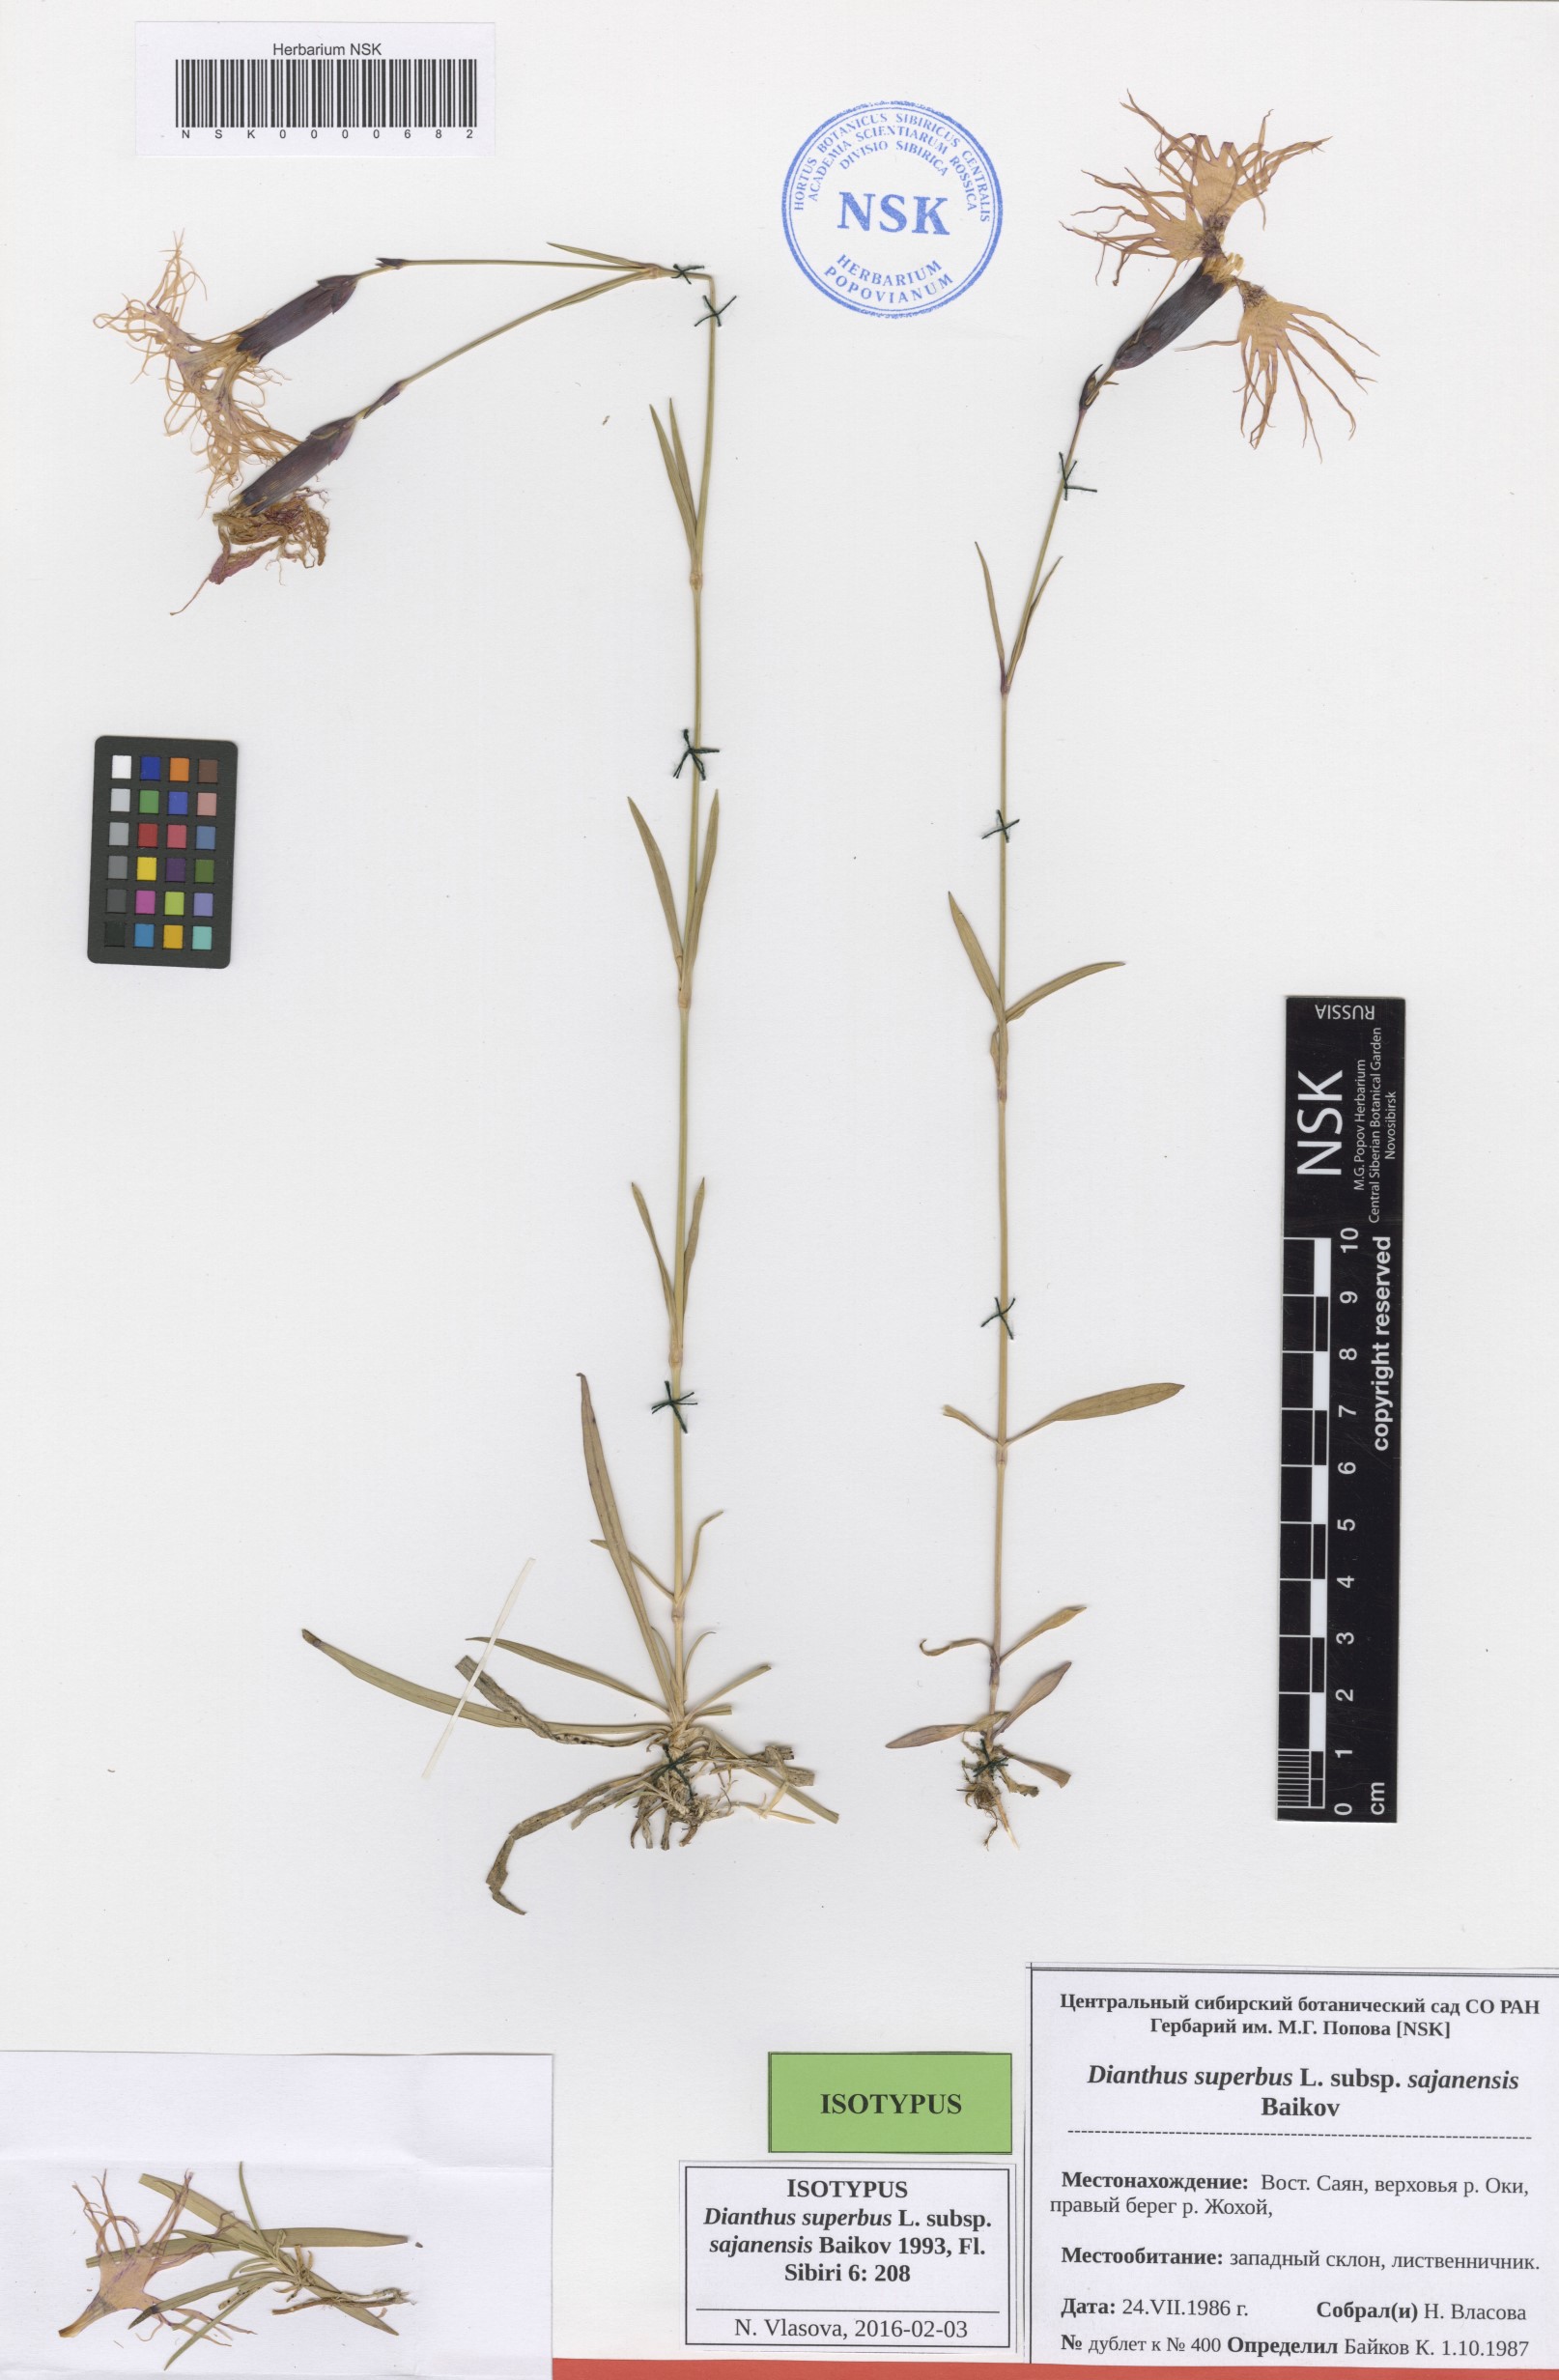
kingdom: Plantae
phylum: Tracheophyta
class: Magnoliopsida
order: Caryophyllales
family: Caryophyllaceae
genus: Dianthus
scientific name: Dianthus superbus
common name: Fringed pink
